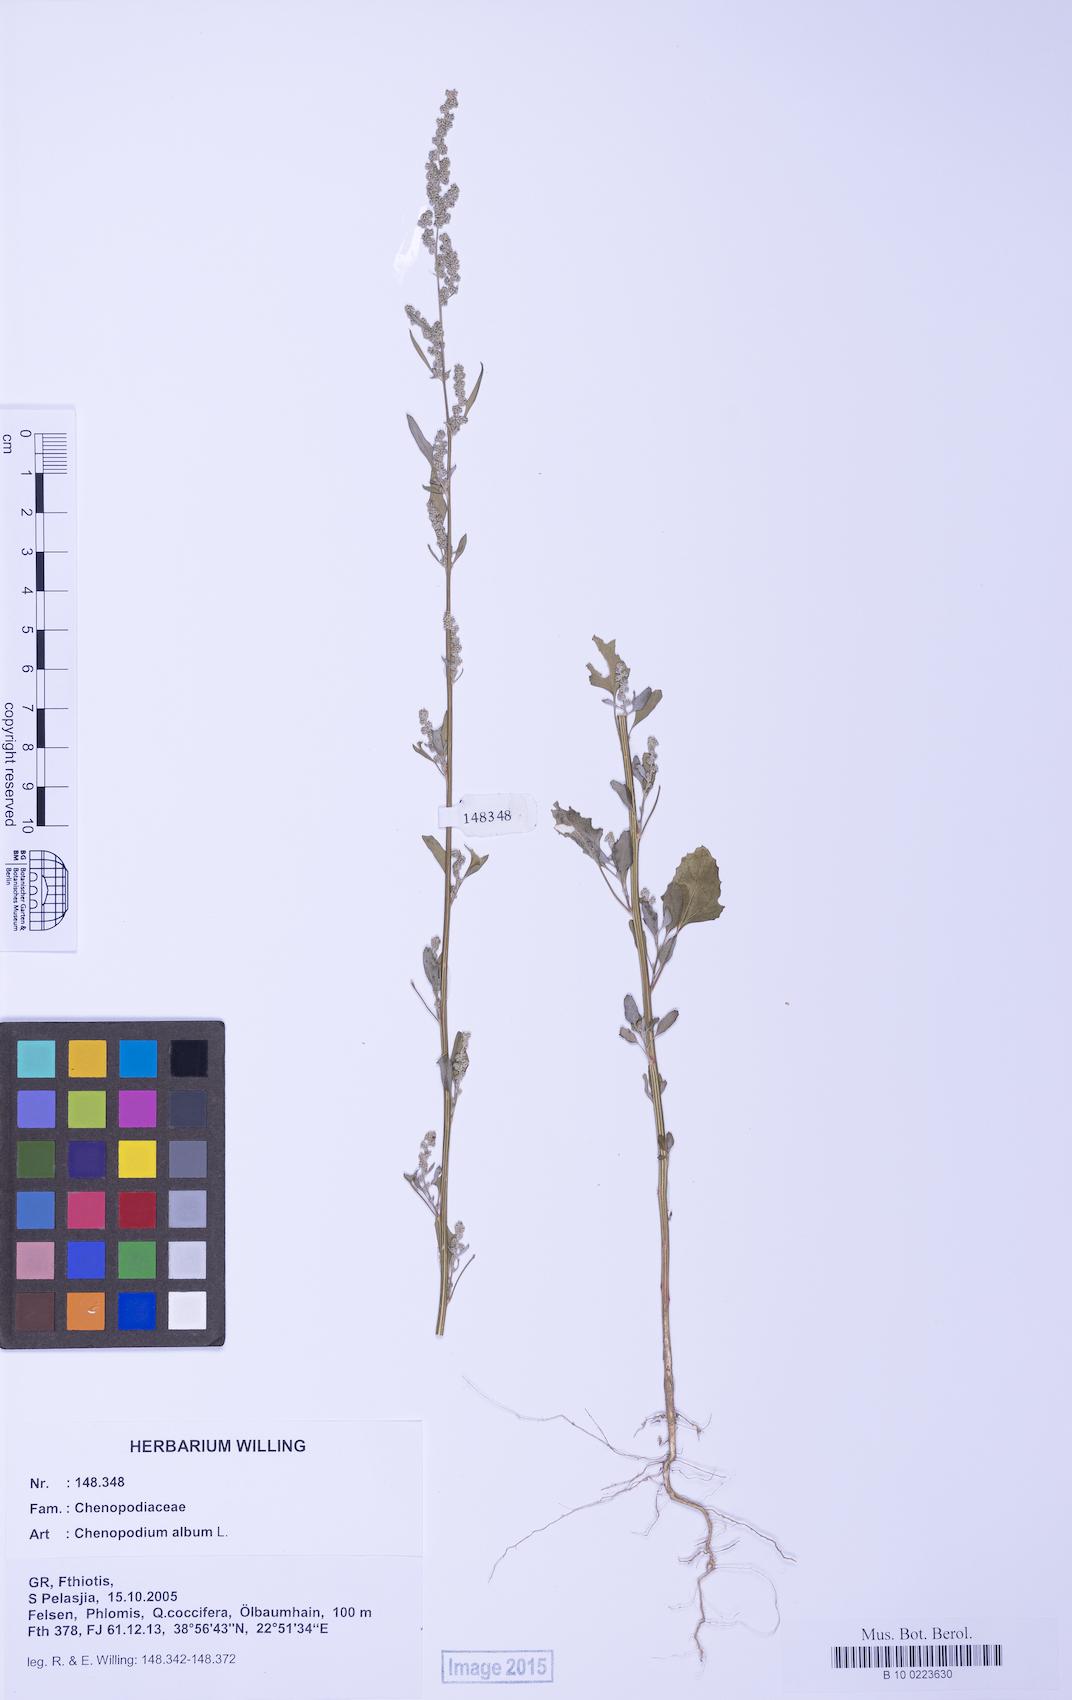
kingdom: Plantae
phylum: Tracheophyta
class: Magnoliopsida
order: Caryophyllales
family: Amaranthaceae
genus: Chenopodium
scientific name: Chenopodium album
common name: Fat-hen
